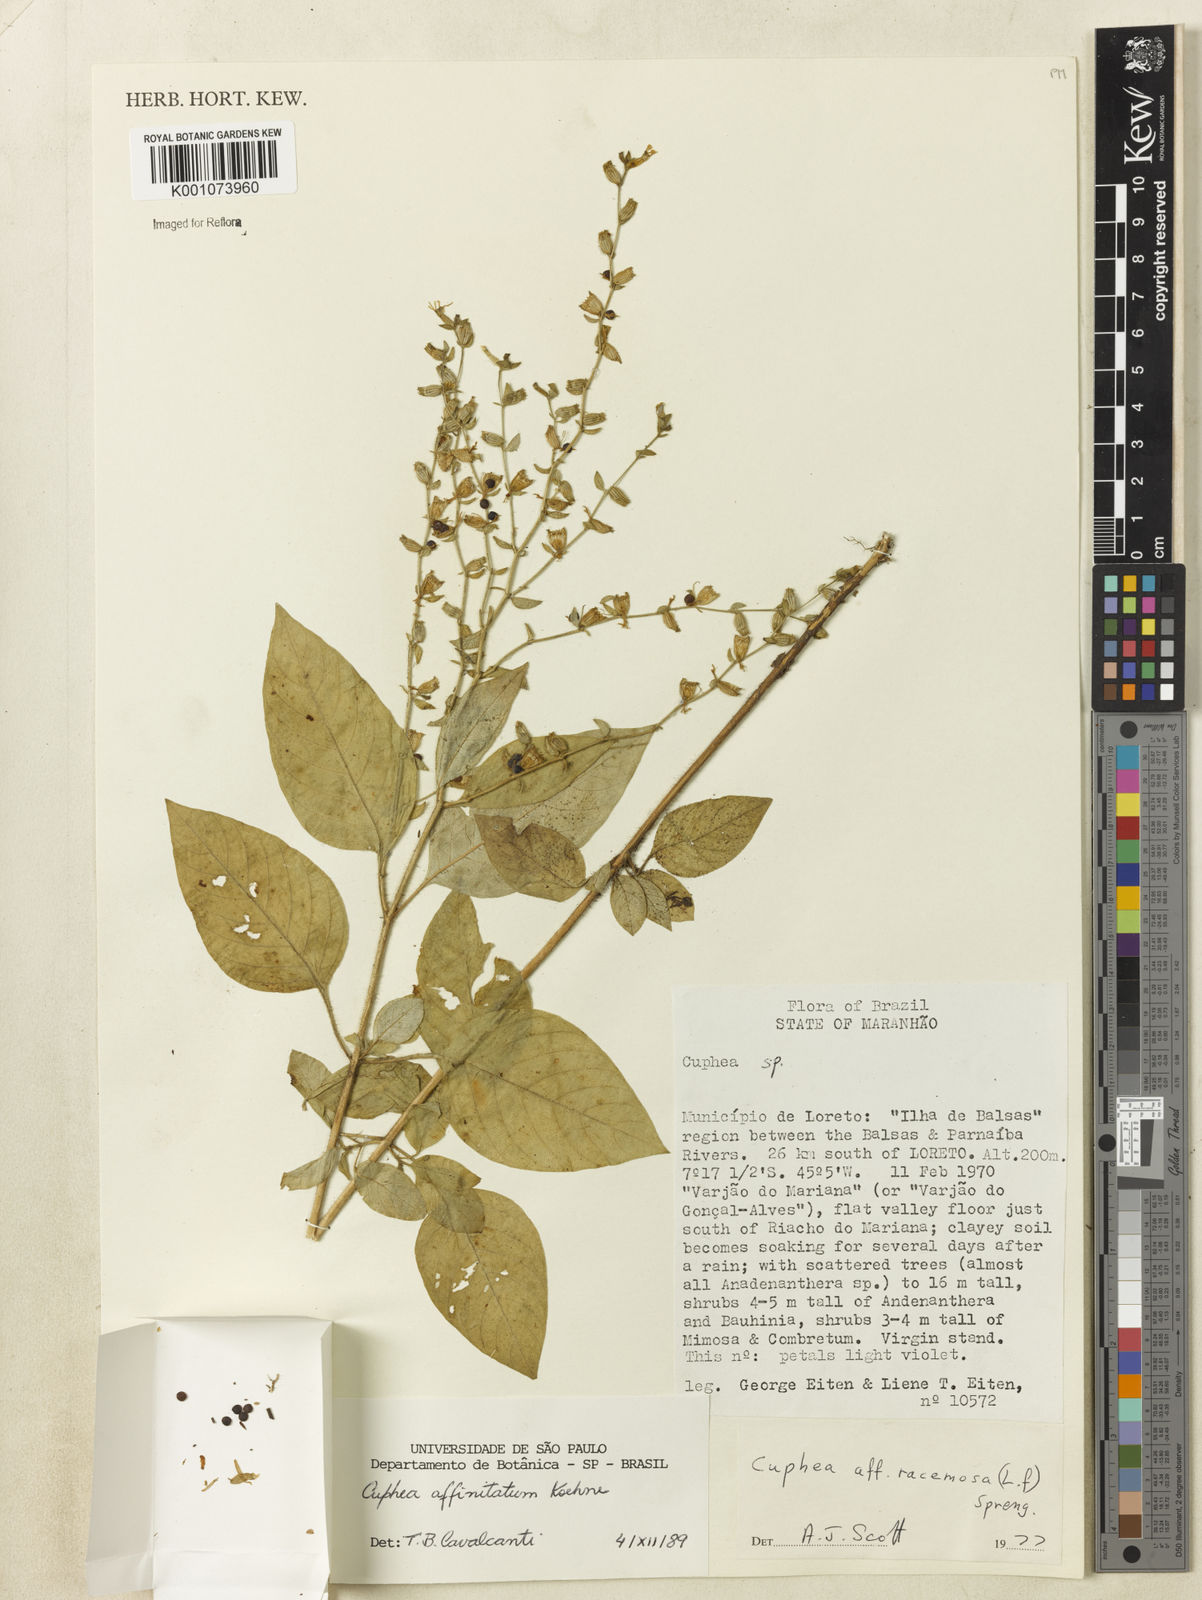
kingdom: Plantae
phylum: Tracheophyta
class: Magnoliopsida
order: Myrtales
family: Lythraceae
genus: Cuphea
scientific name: Cuphea
